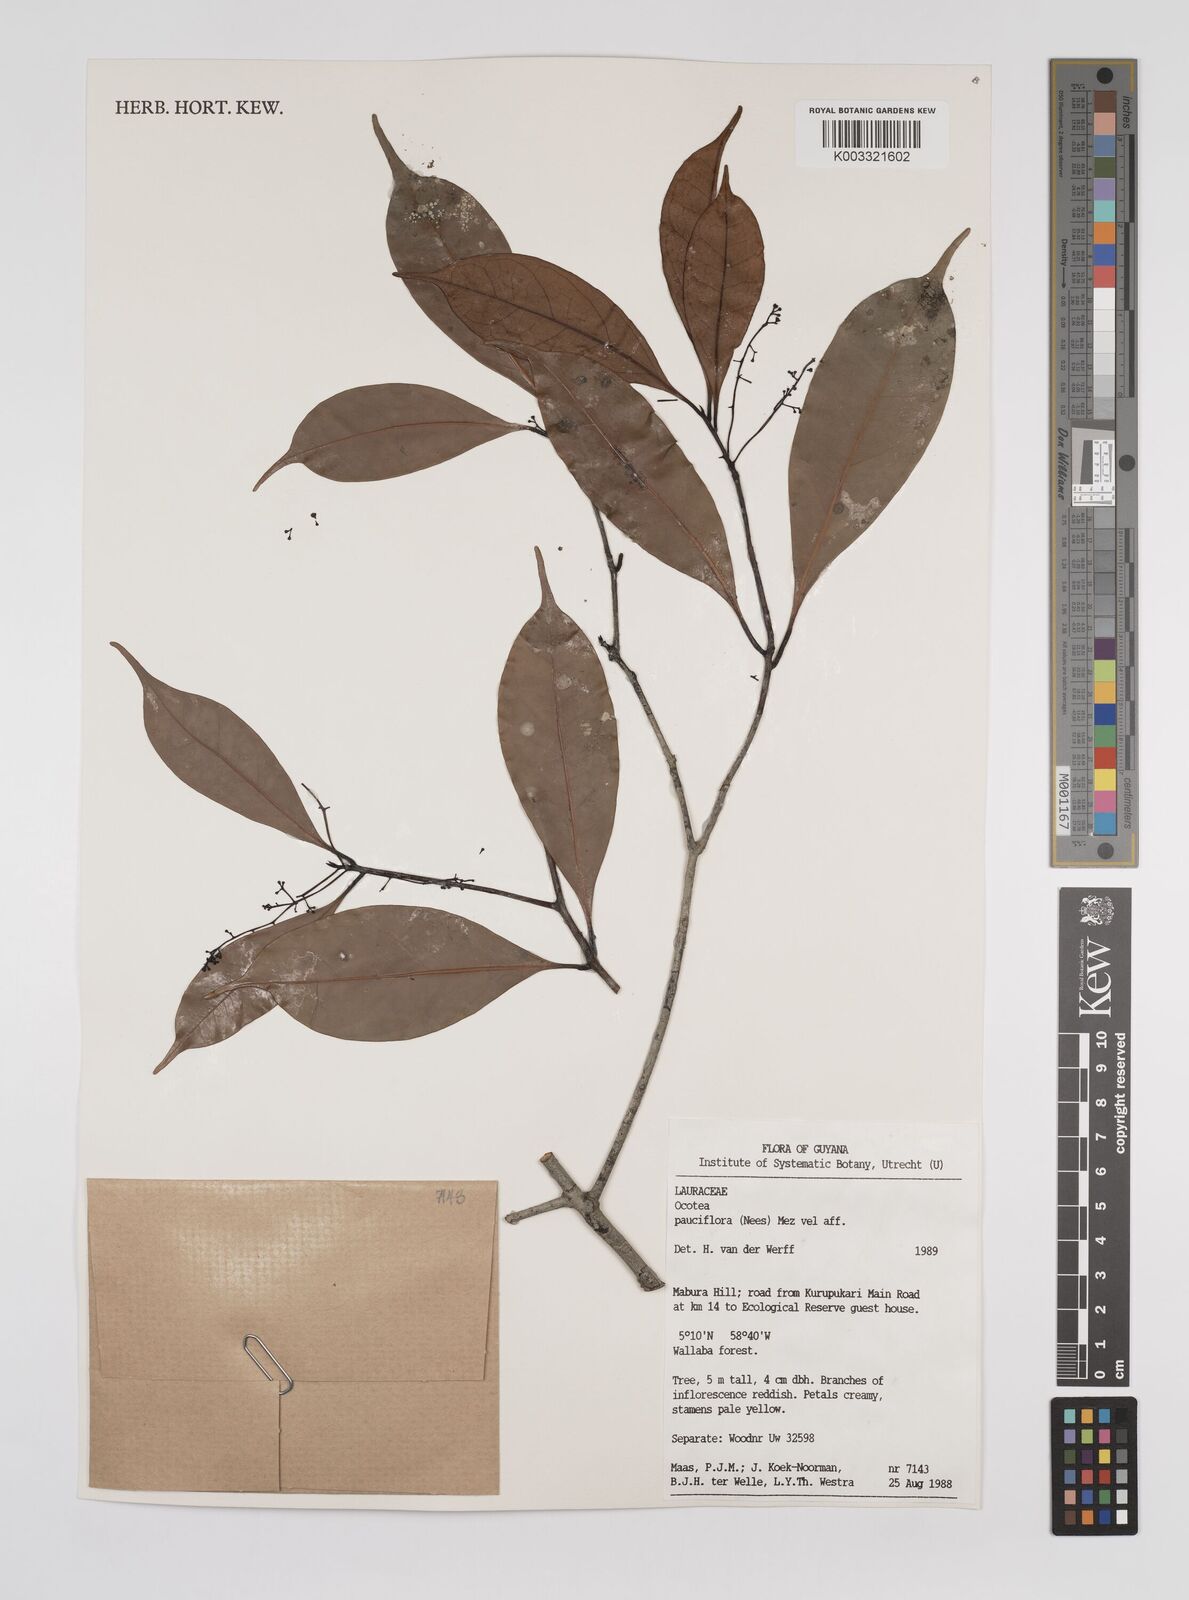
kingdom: Plantae
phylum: Tracheophyta
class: Magnoliopsida
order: Laurales
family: Lauraceae
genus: Ocotea
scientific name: Ocotea pauciflora
